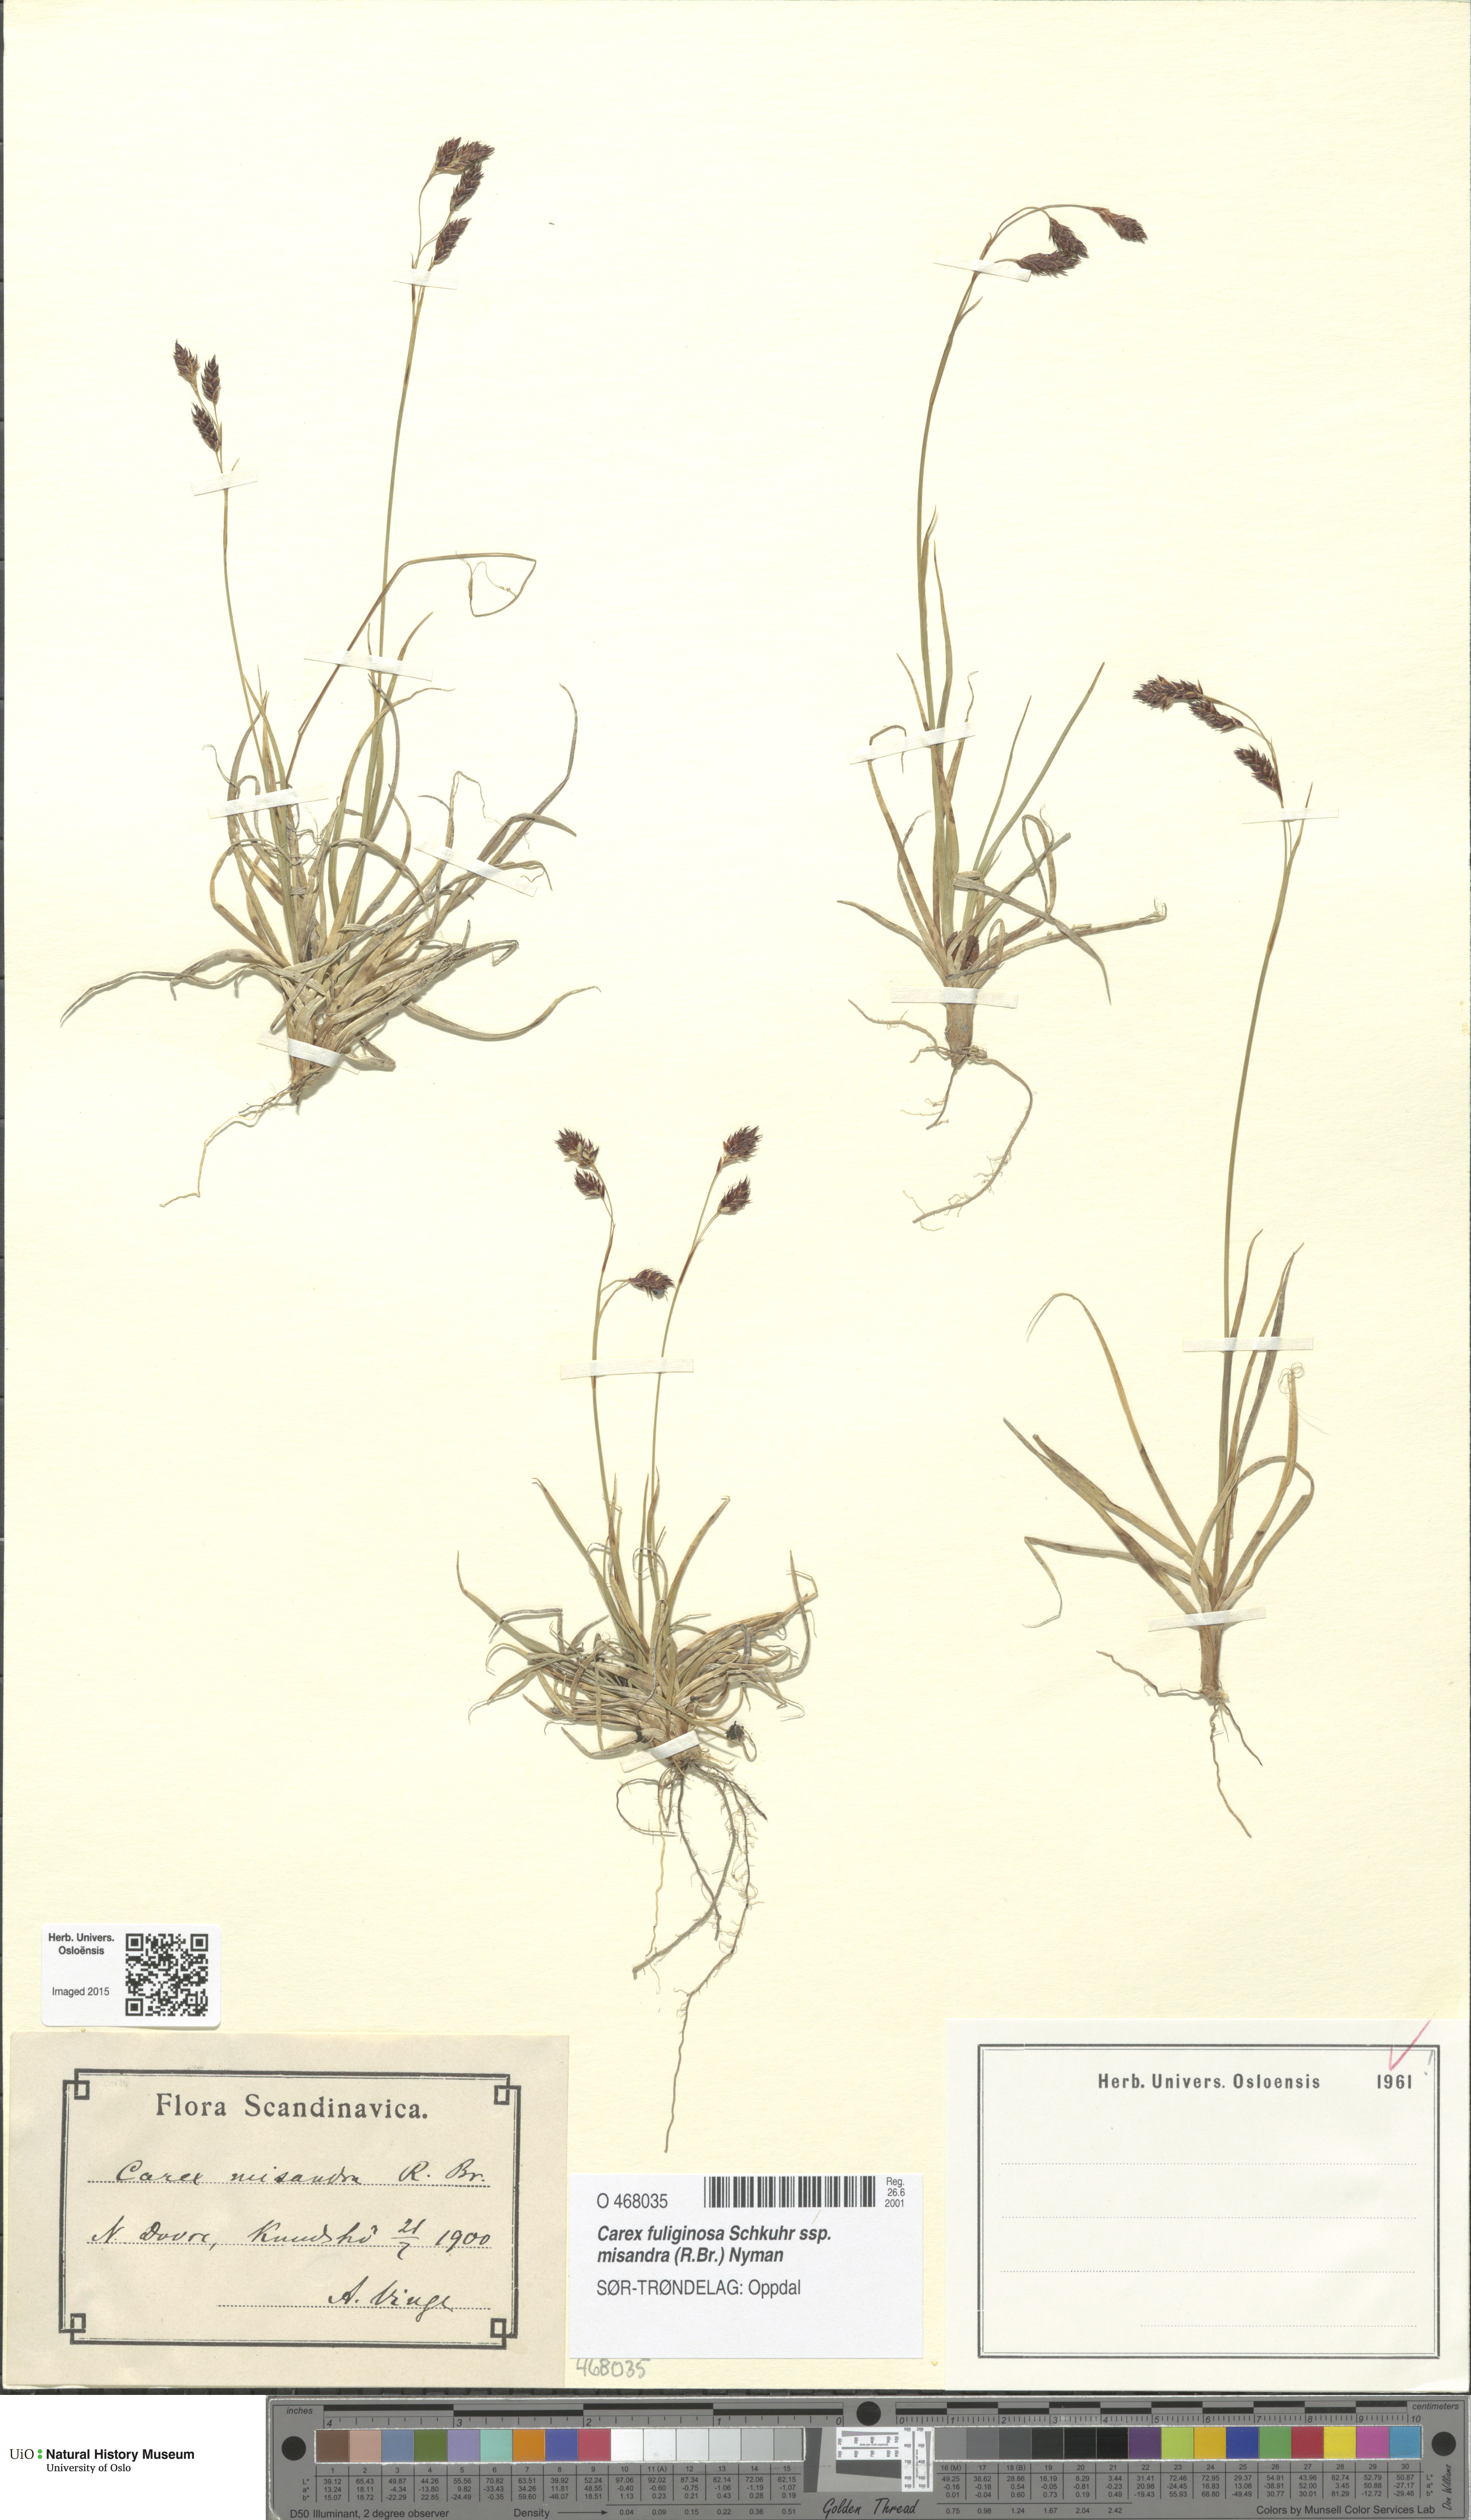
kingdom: Plantae
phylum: Tracheophyta
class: Liliopsida
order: Poales
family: Cyperaceae
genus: Carex
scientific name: Carex fuliginosa
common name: Few-flowered sedge
